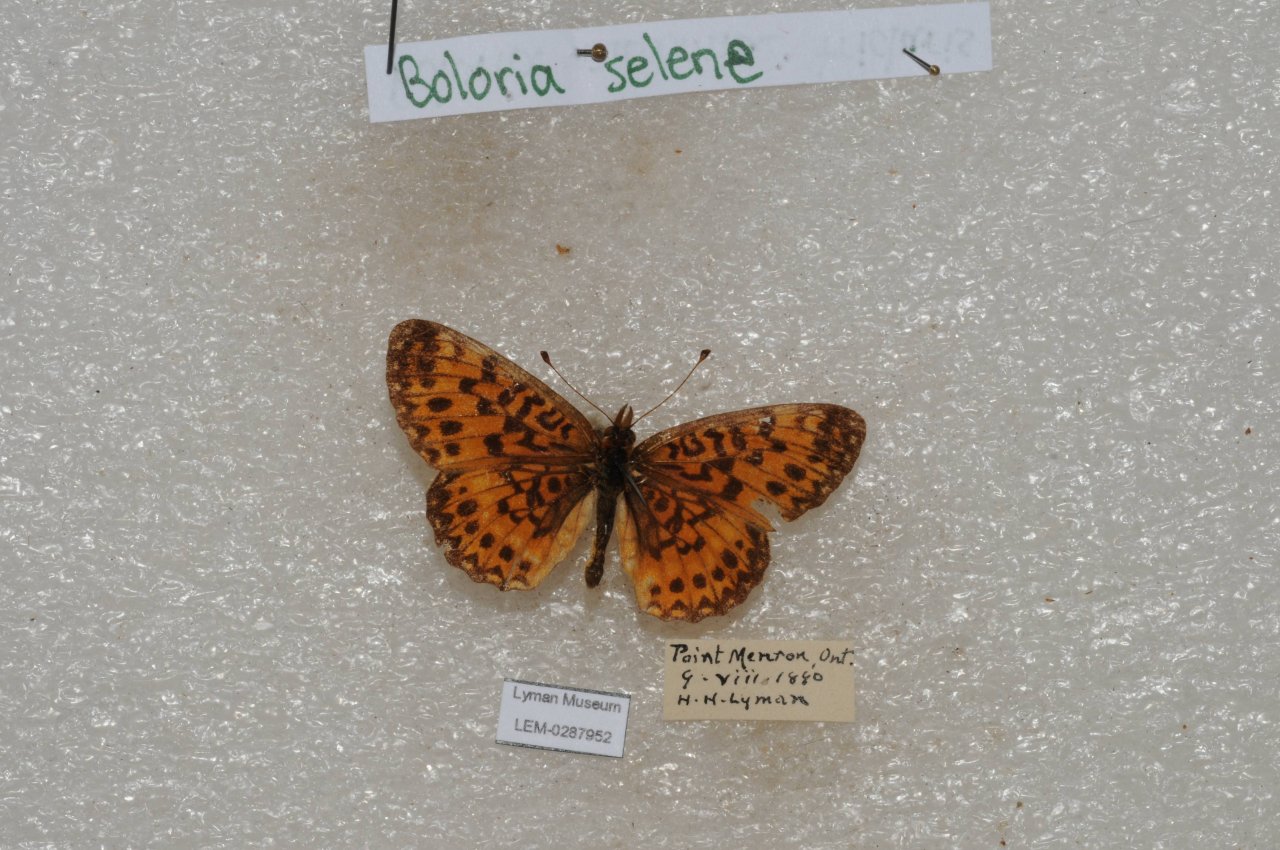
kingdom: Animalia
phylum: Arthropoda
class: Insecta
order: Lepidoptera
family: Nymphalidae
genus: Boloria
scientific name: Boloria selene
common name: Silver-bordered Fritillary
